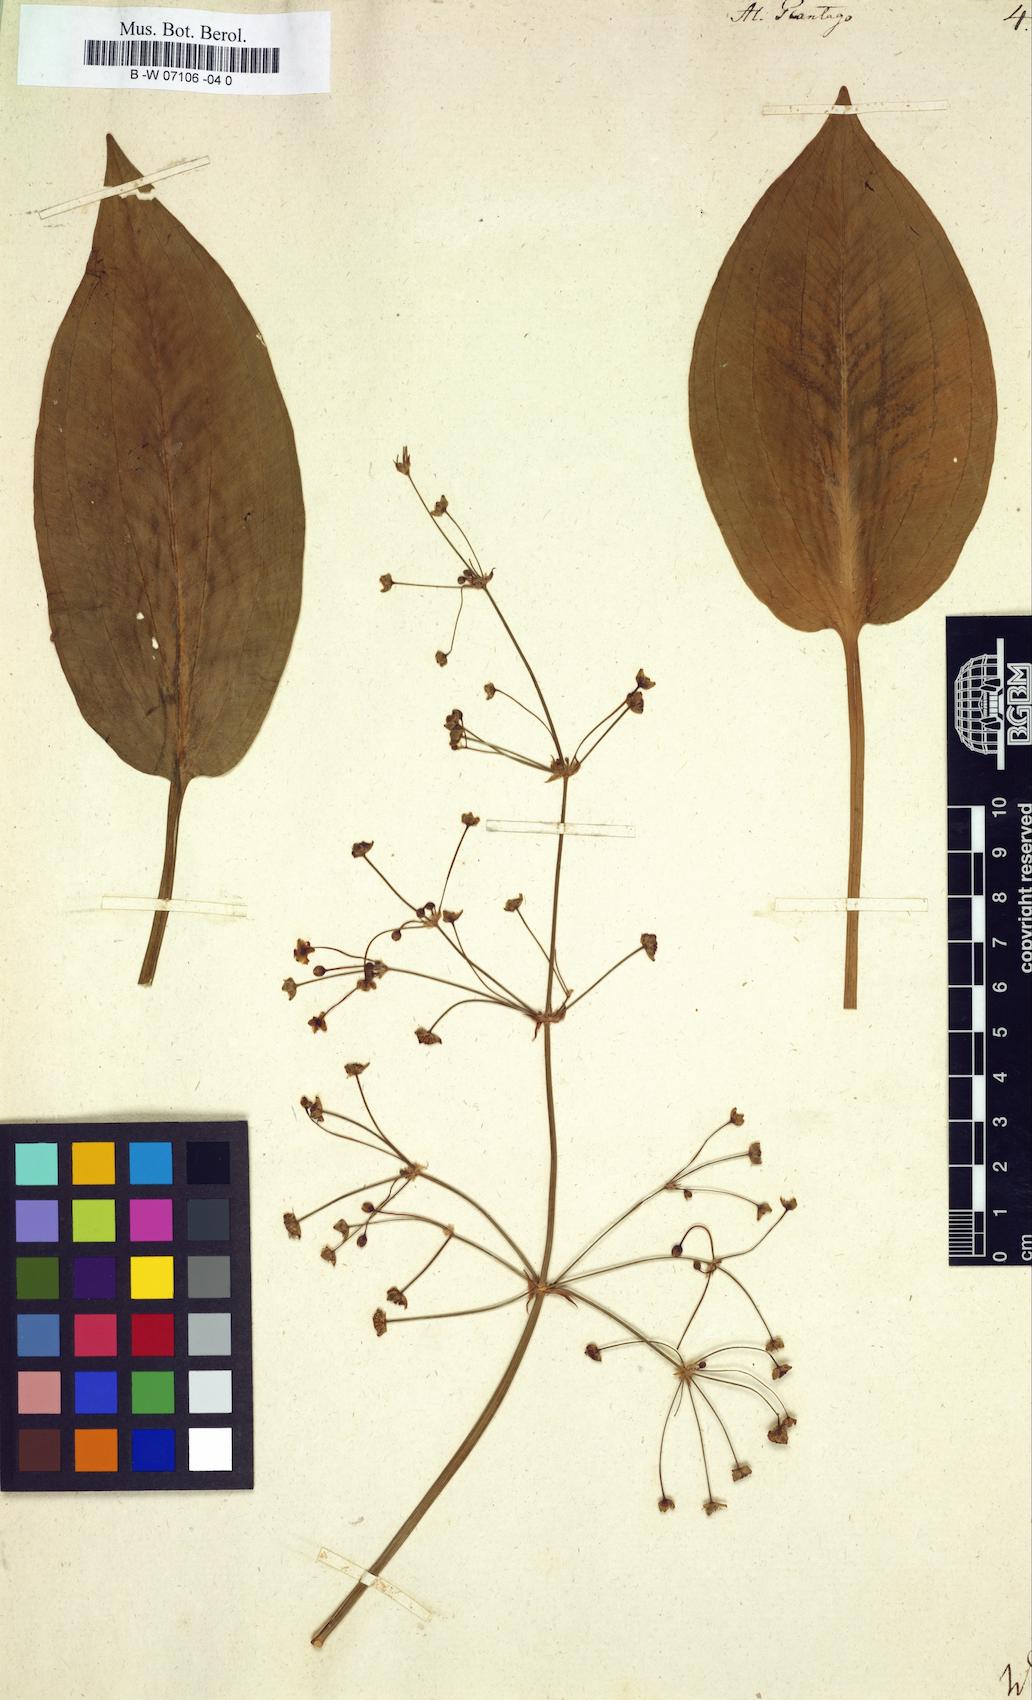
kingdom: Plantae
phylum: Tracheophyta
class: Liliopsida
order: Alismatales
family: Alismataceae
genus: Alisma
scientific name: Alisma plantago-aquatica
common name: Water-plantain
